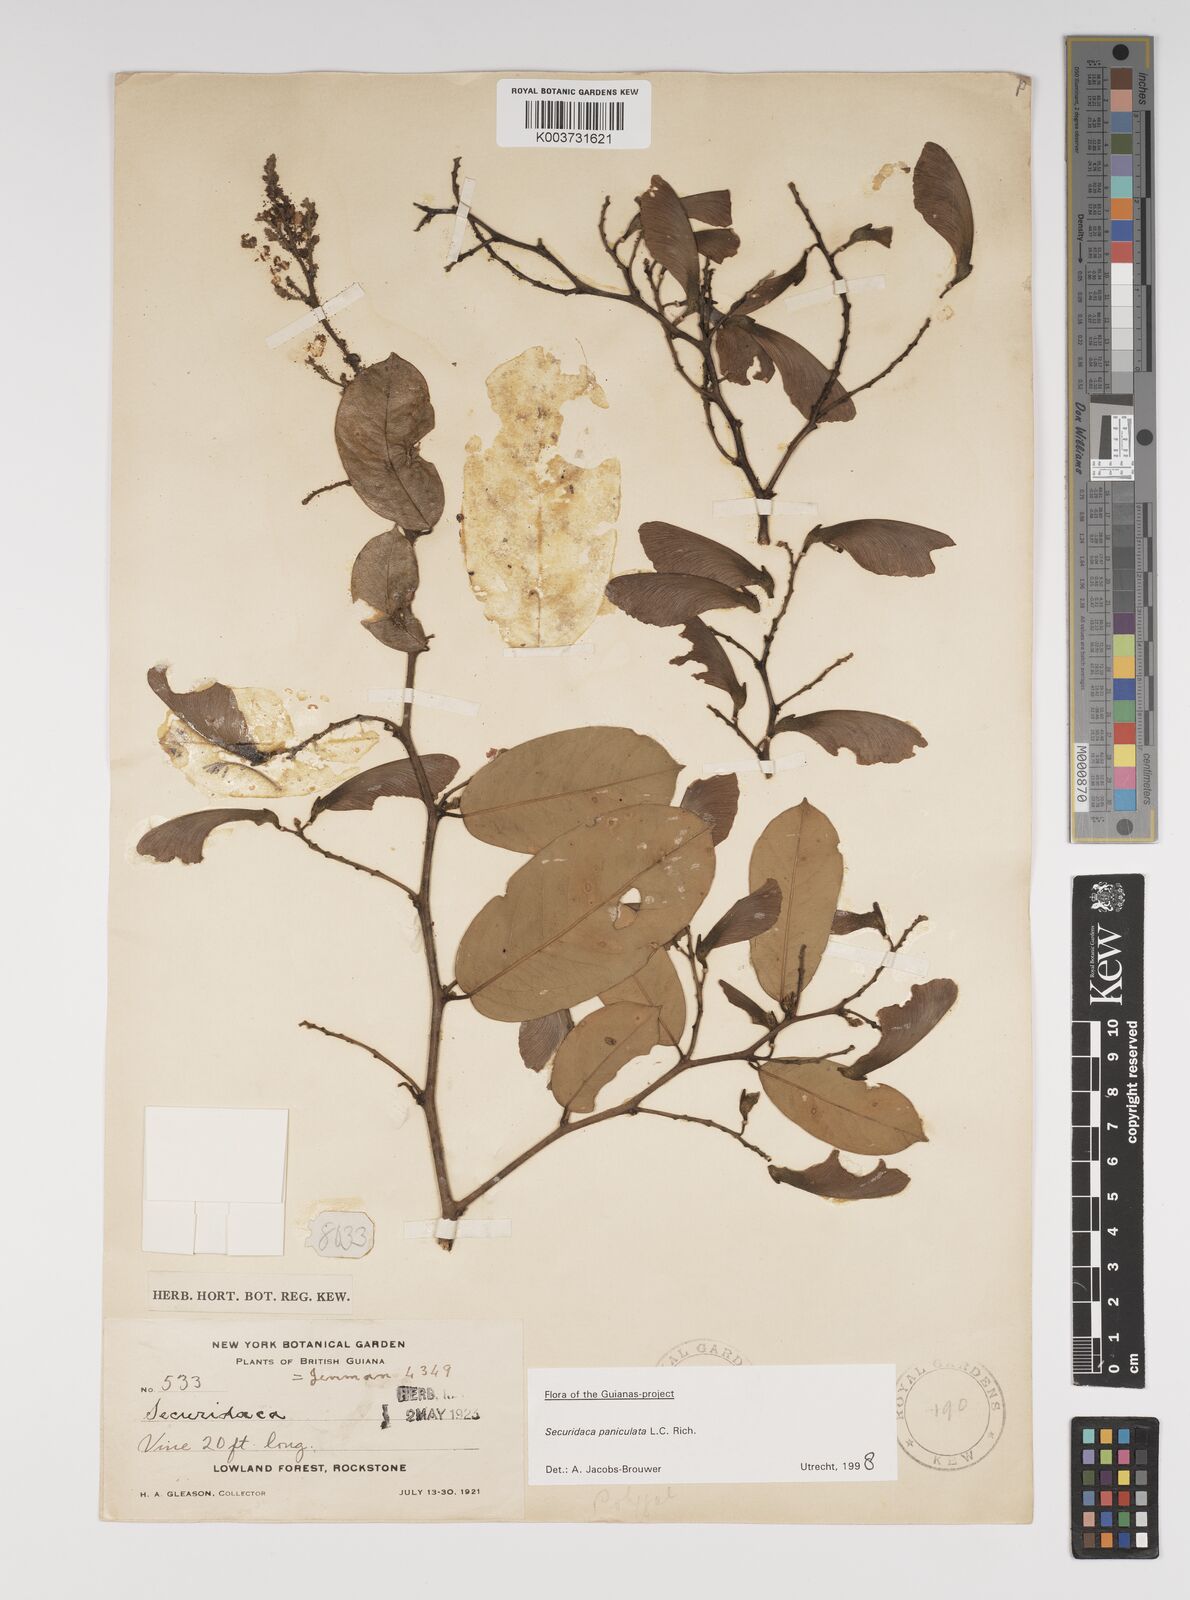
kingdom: Plantae
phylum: Tracheophyta
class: Magnoliopsida
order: Fabales
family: Polygalaceae
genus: Securidaca
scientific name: Securidaca paniculata
